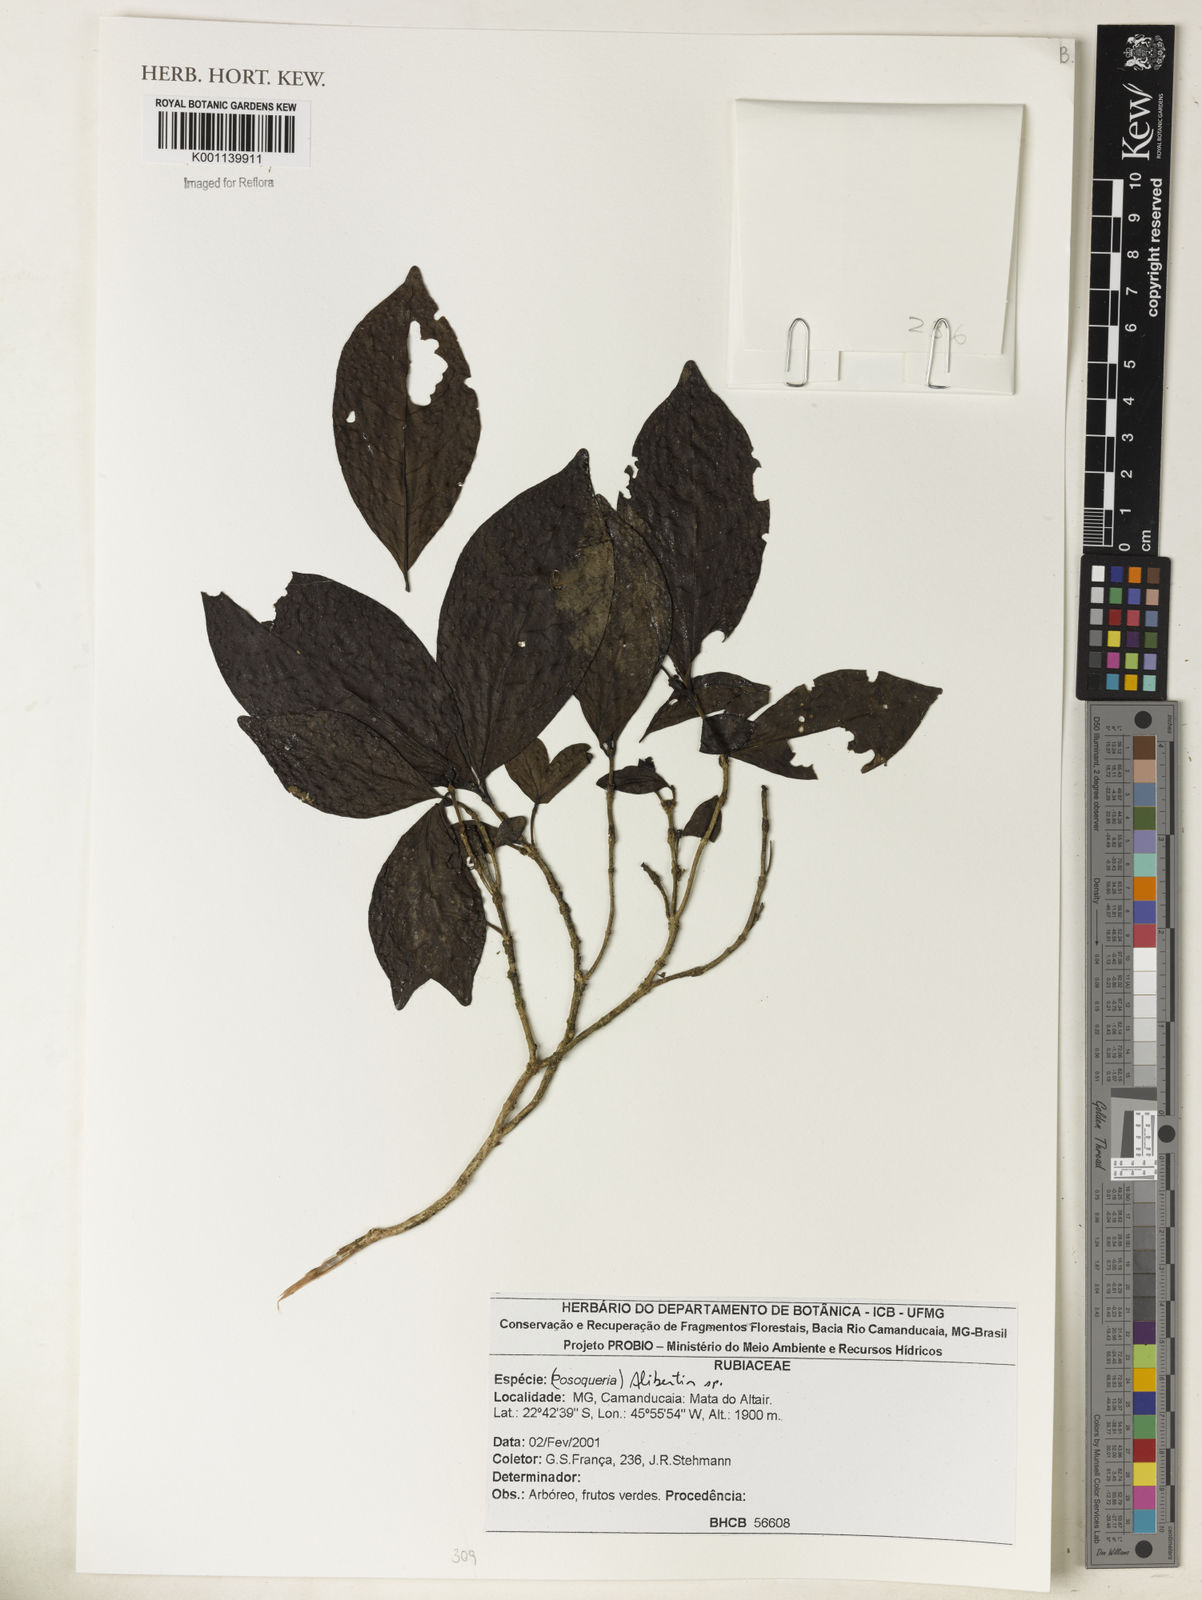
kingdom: Plantae
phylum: Tracheophyta
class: Magnoliopsida
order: Gentianales
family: Rubiaceae
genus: Alibertia
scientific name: Alibertia
